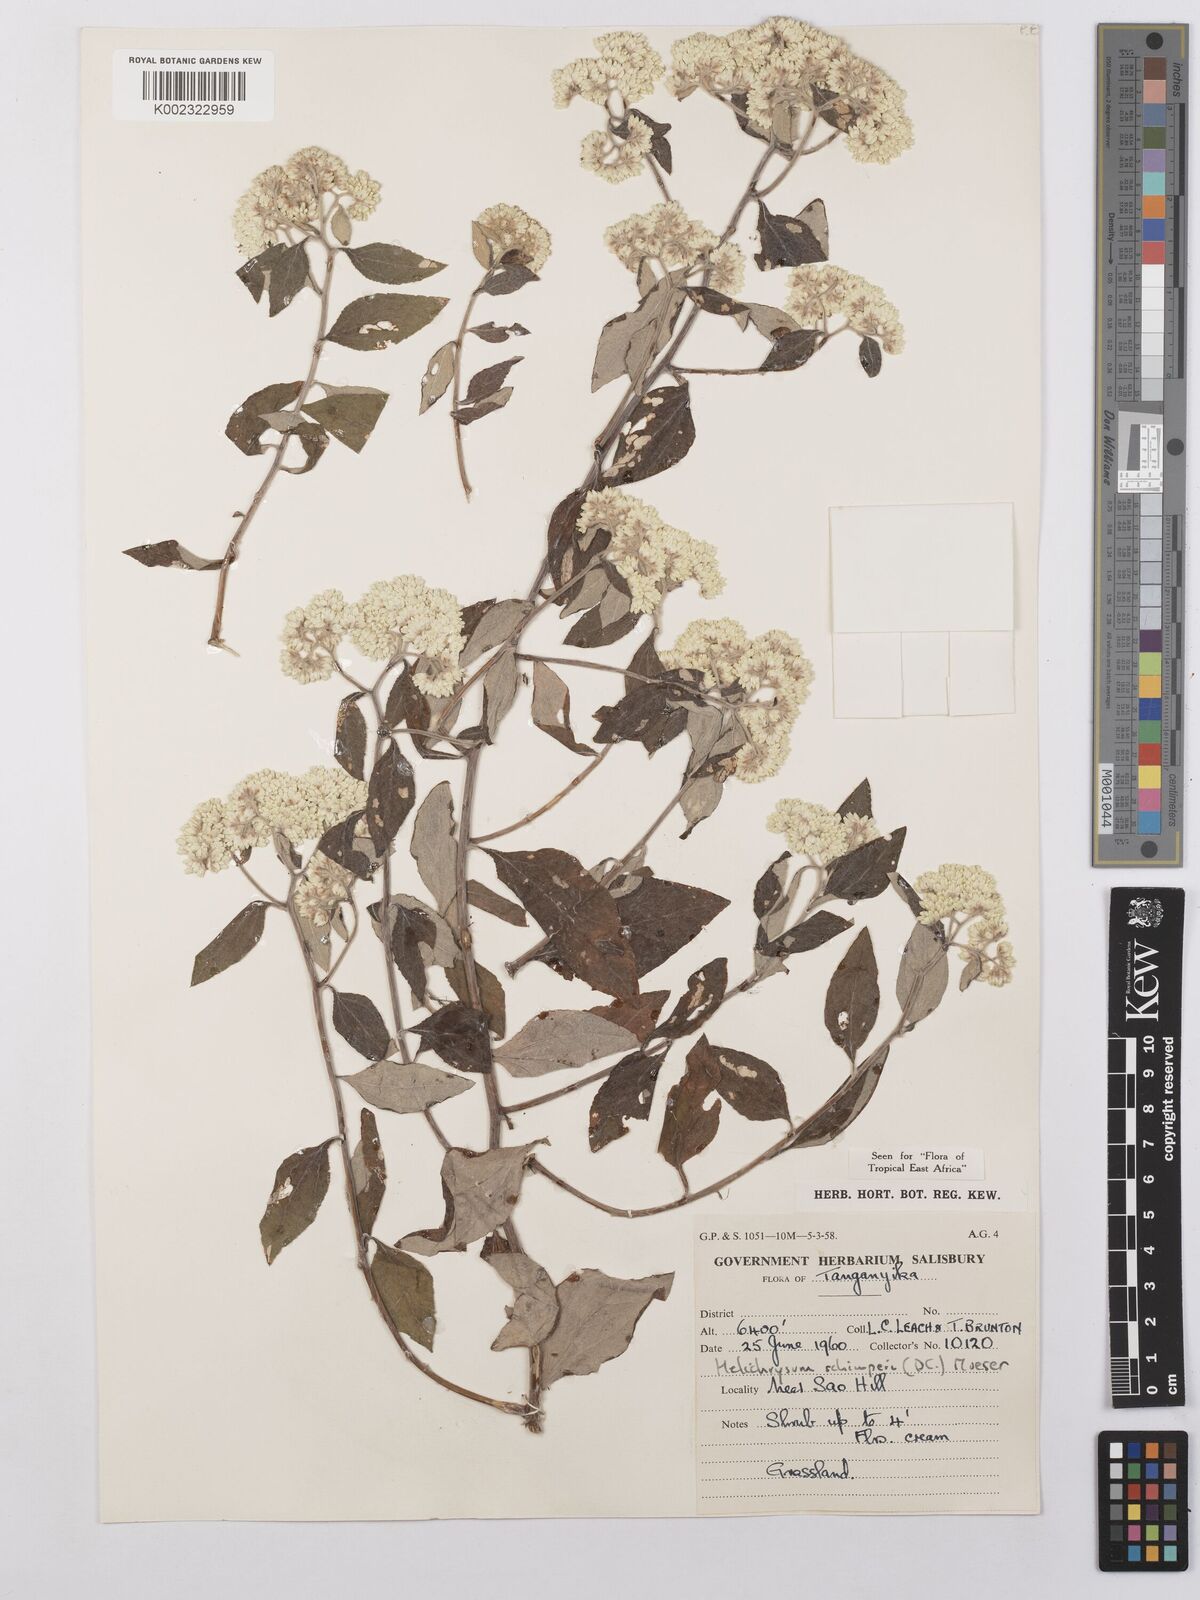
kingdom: Plantae
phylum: Tracheophyta
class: Magnoliopsida
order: Asterales
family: Asteraceae
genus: Helichrysum
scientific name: Helichrysum schimperi
